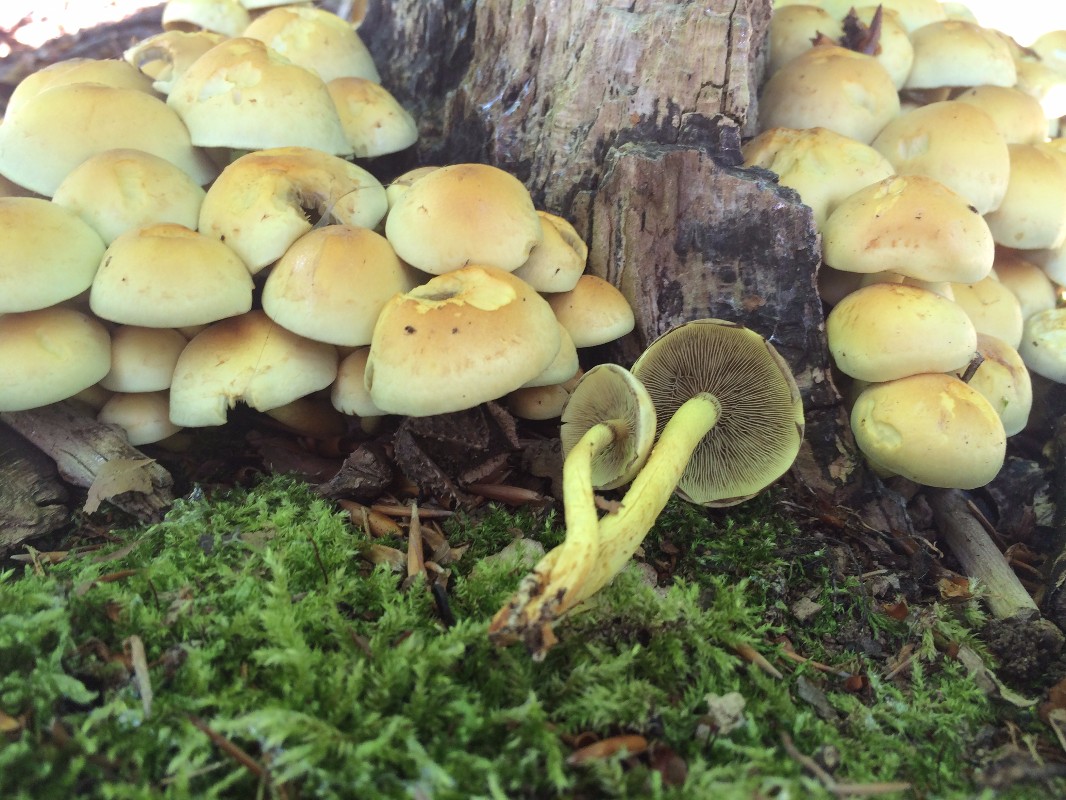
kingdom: Fungi
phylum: Basidiomycota
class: Agaricomycetes
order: Agaricales
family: Strophariaceae
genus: Hypholoma
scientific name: Hypholoma fasciculare
